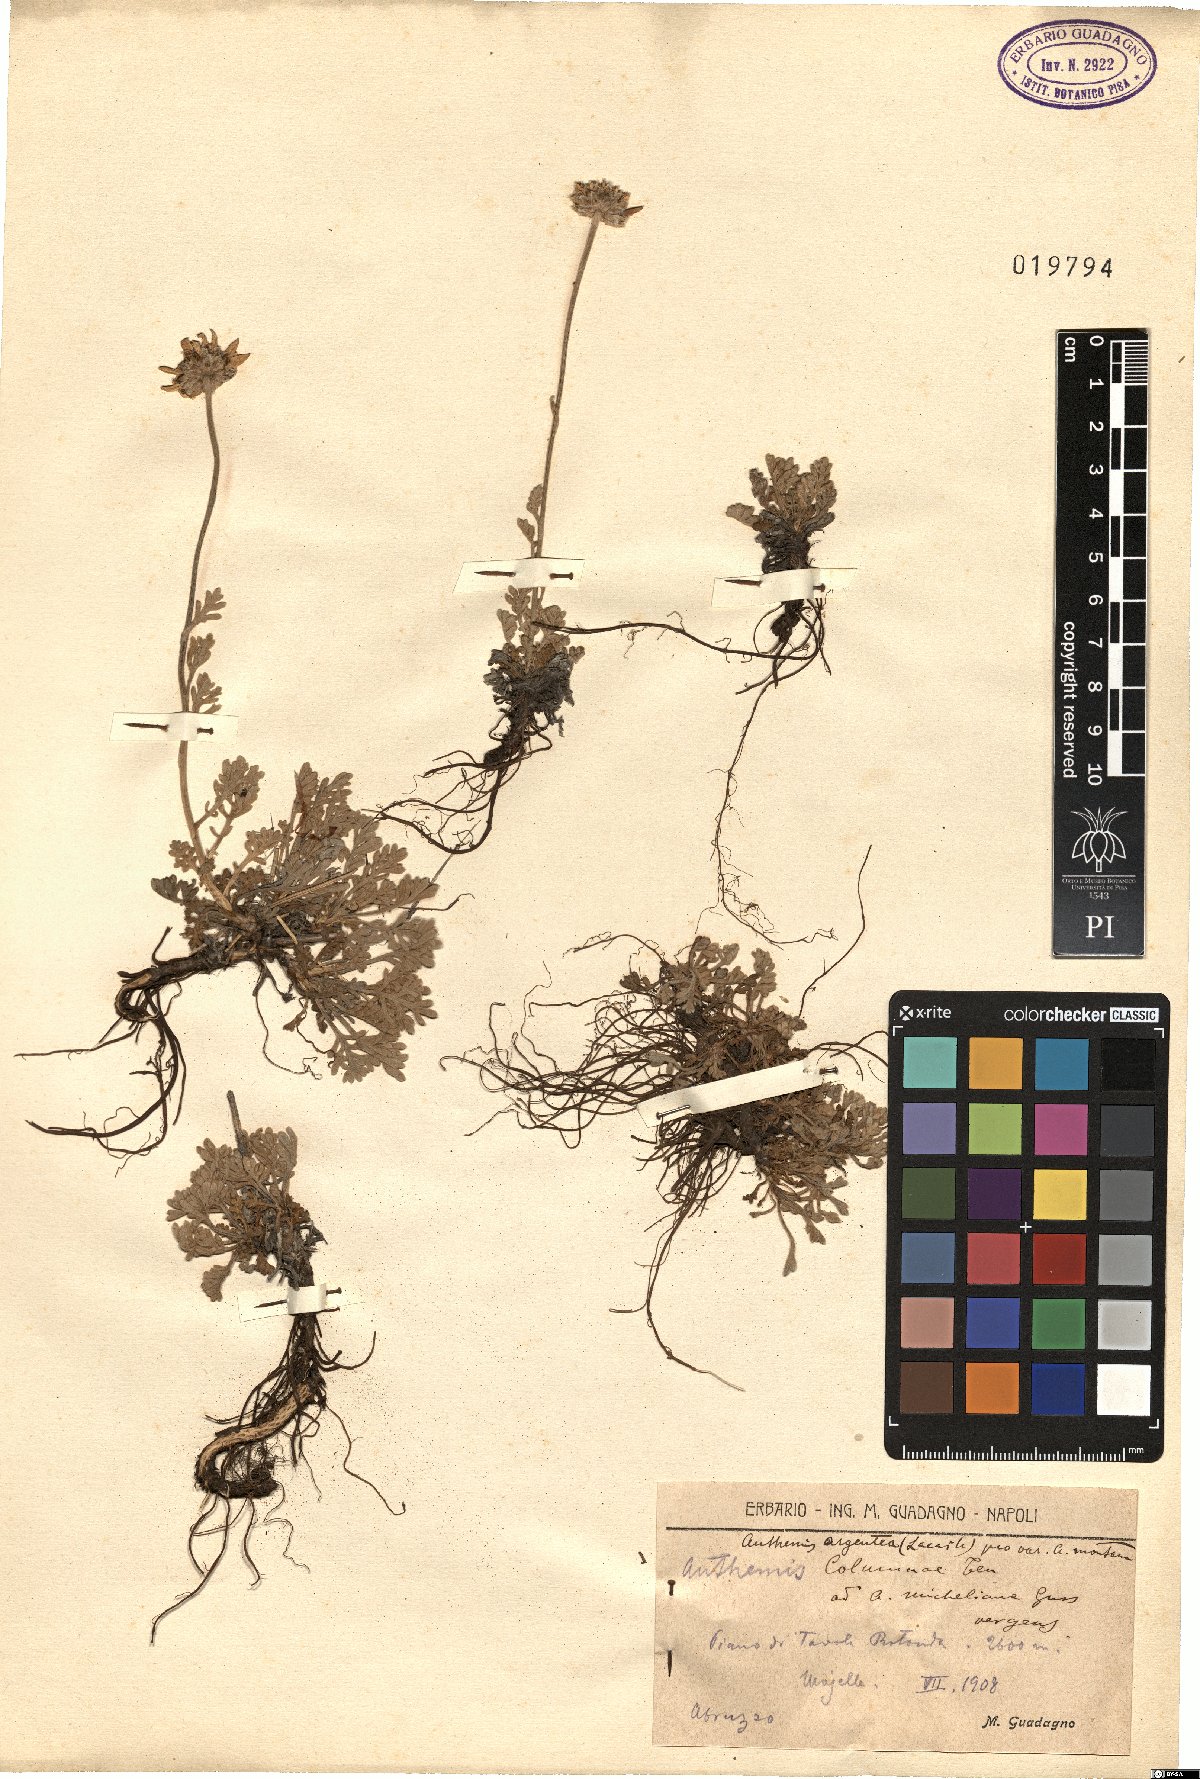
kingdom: Plantae
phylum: Tracheophyta
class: Magnoliopsida
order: Asterales
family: Asteraceae
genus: Anthemis
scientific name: Anthemis cretica
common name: Mountain dog-daisy
